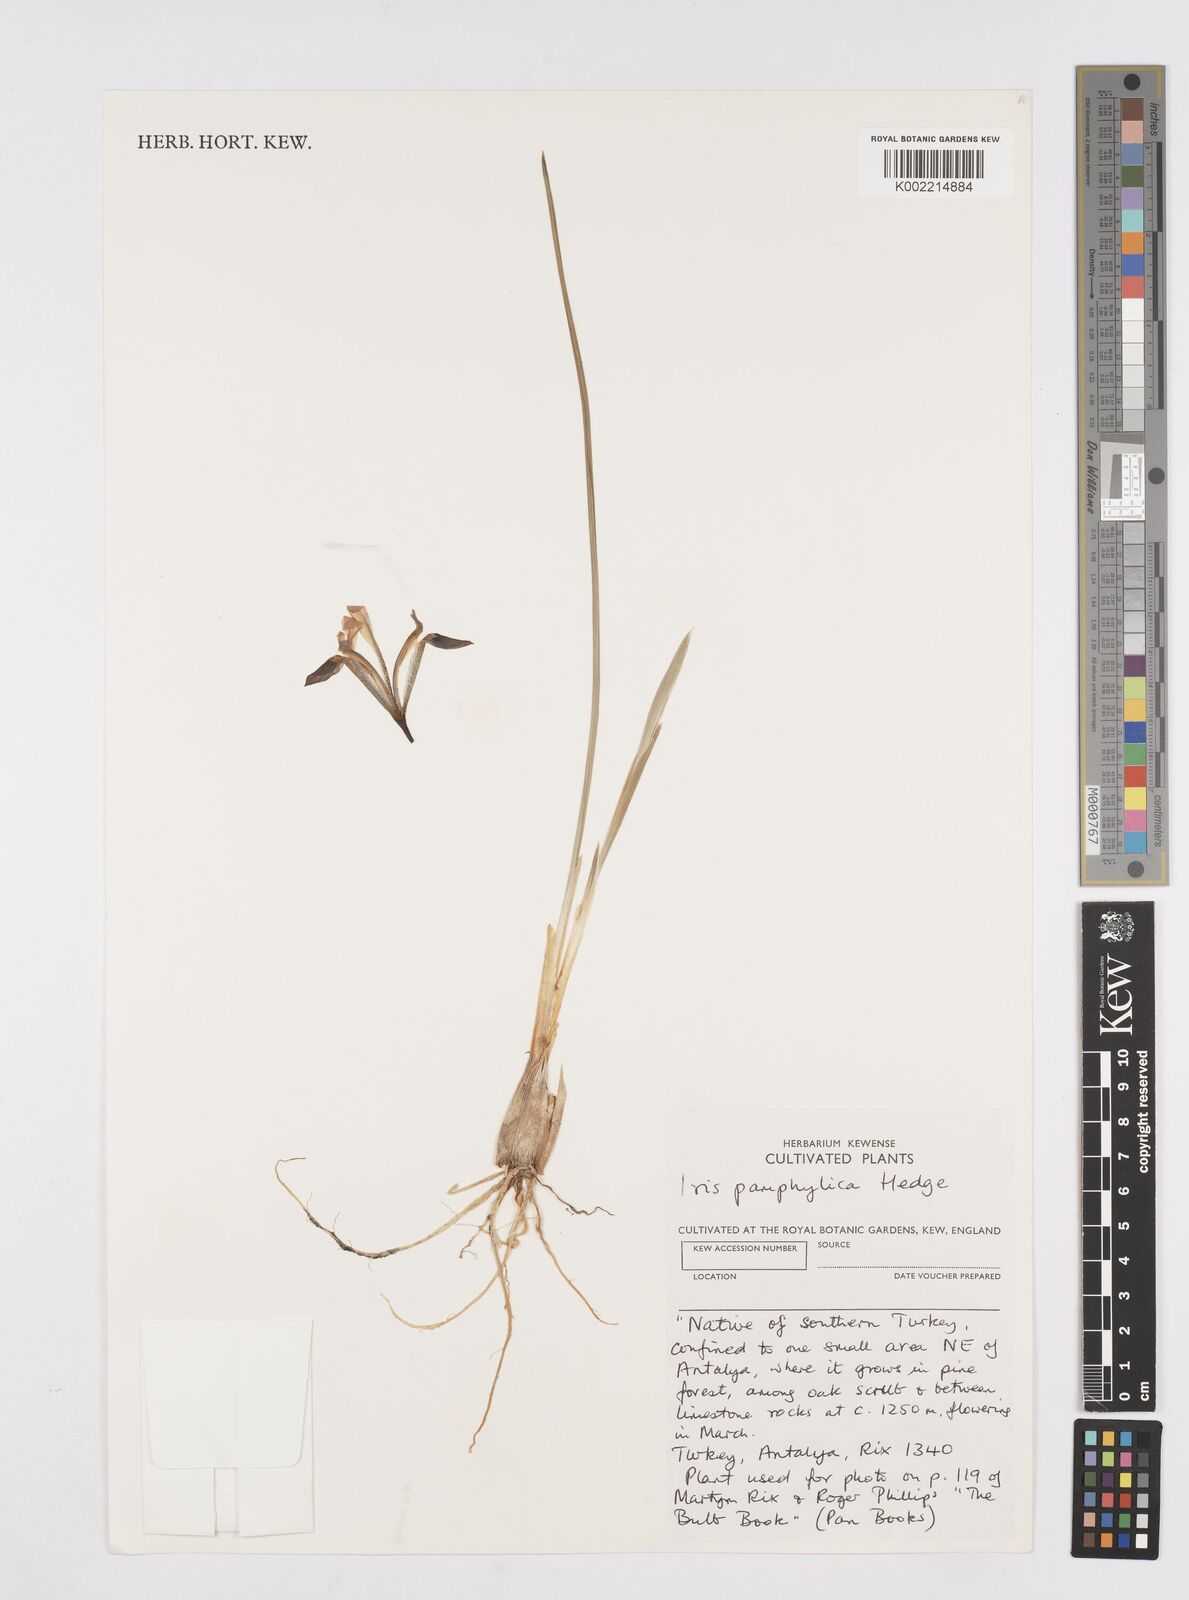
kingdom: Plantae
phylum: Tracheophyta
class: Liliopsida
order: Asparagales
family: Iridaceae
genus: Iris
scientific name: Iris pamphylica
